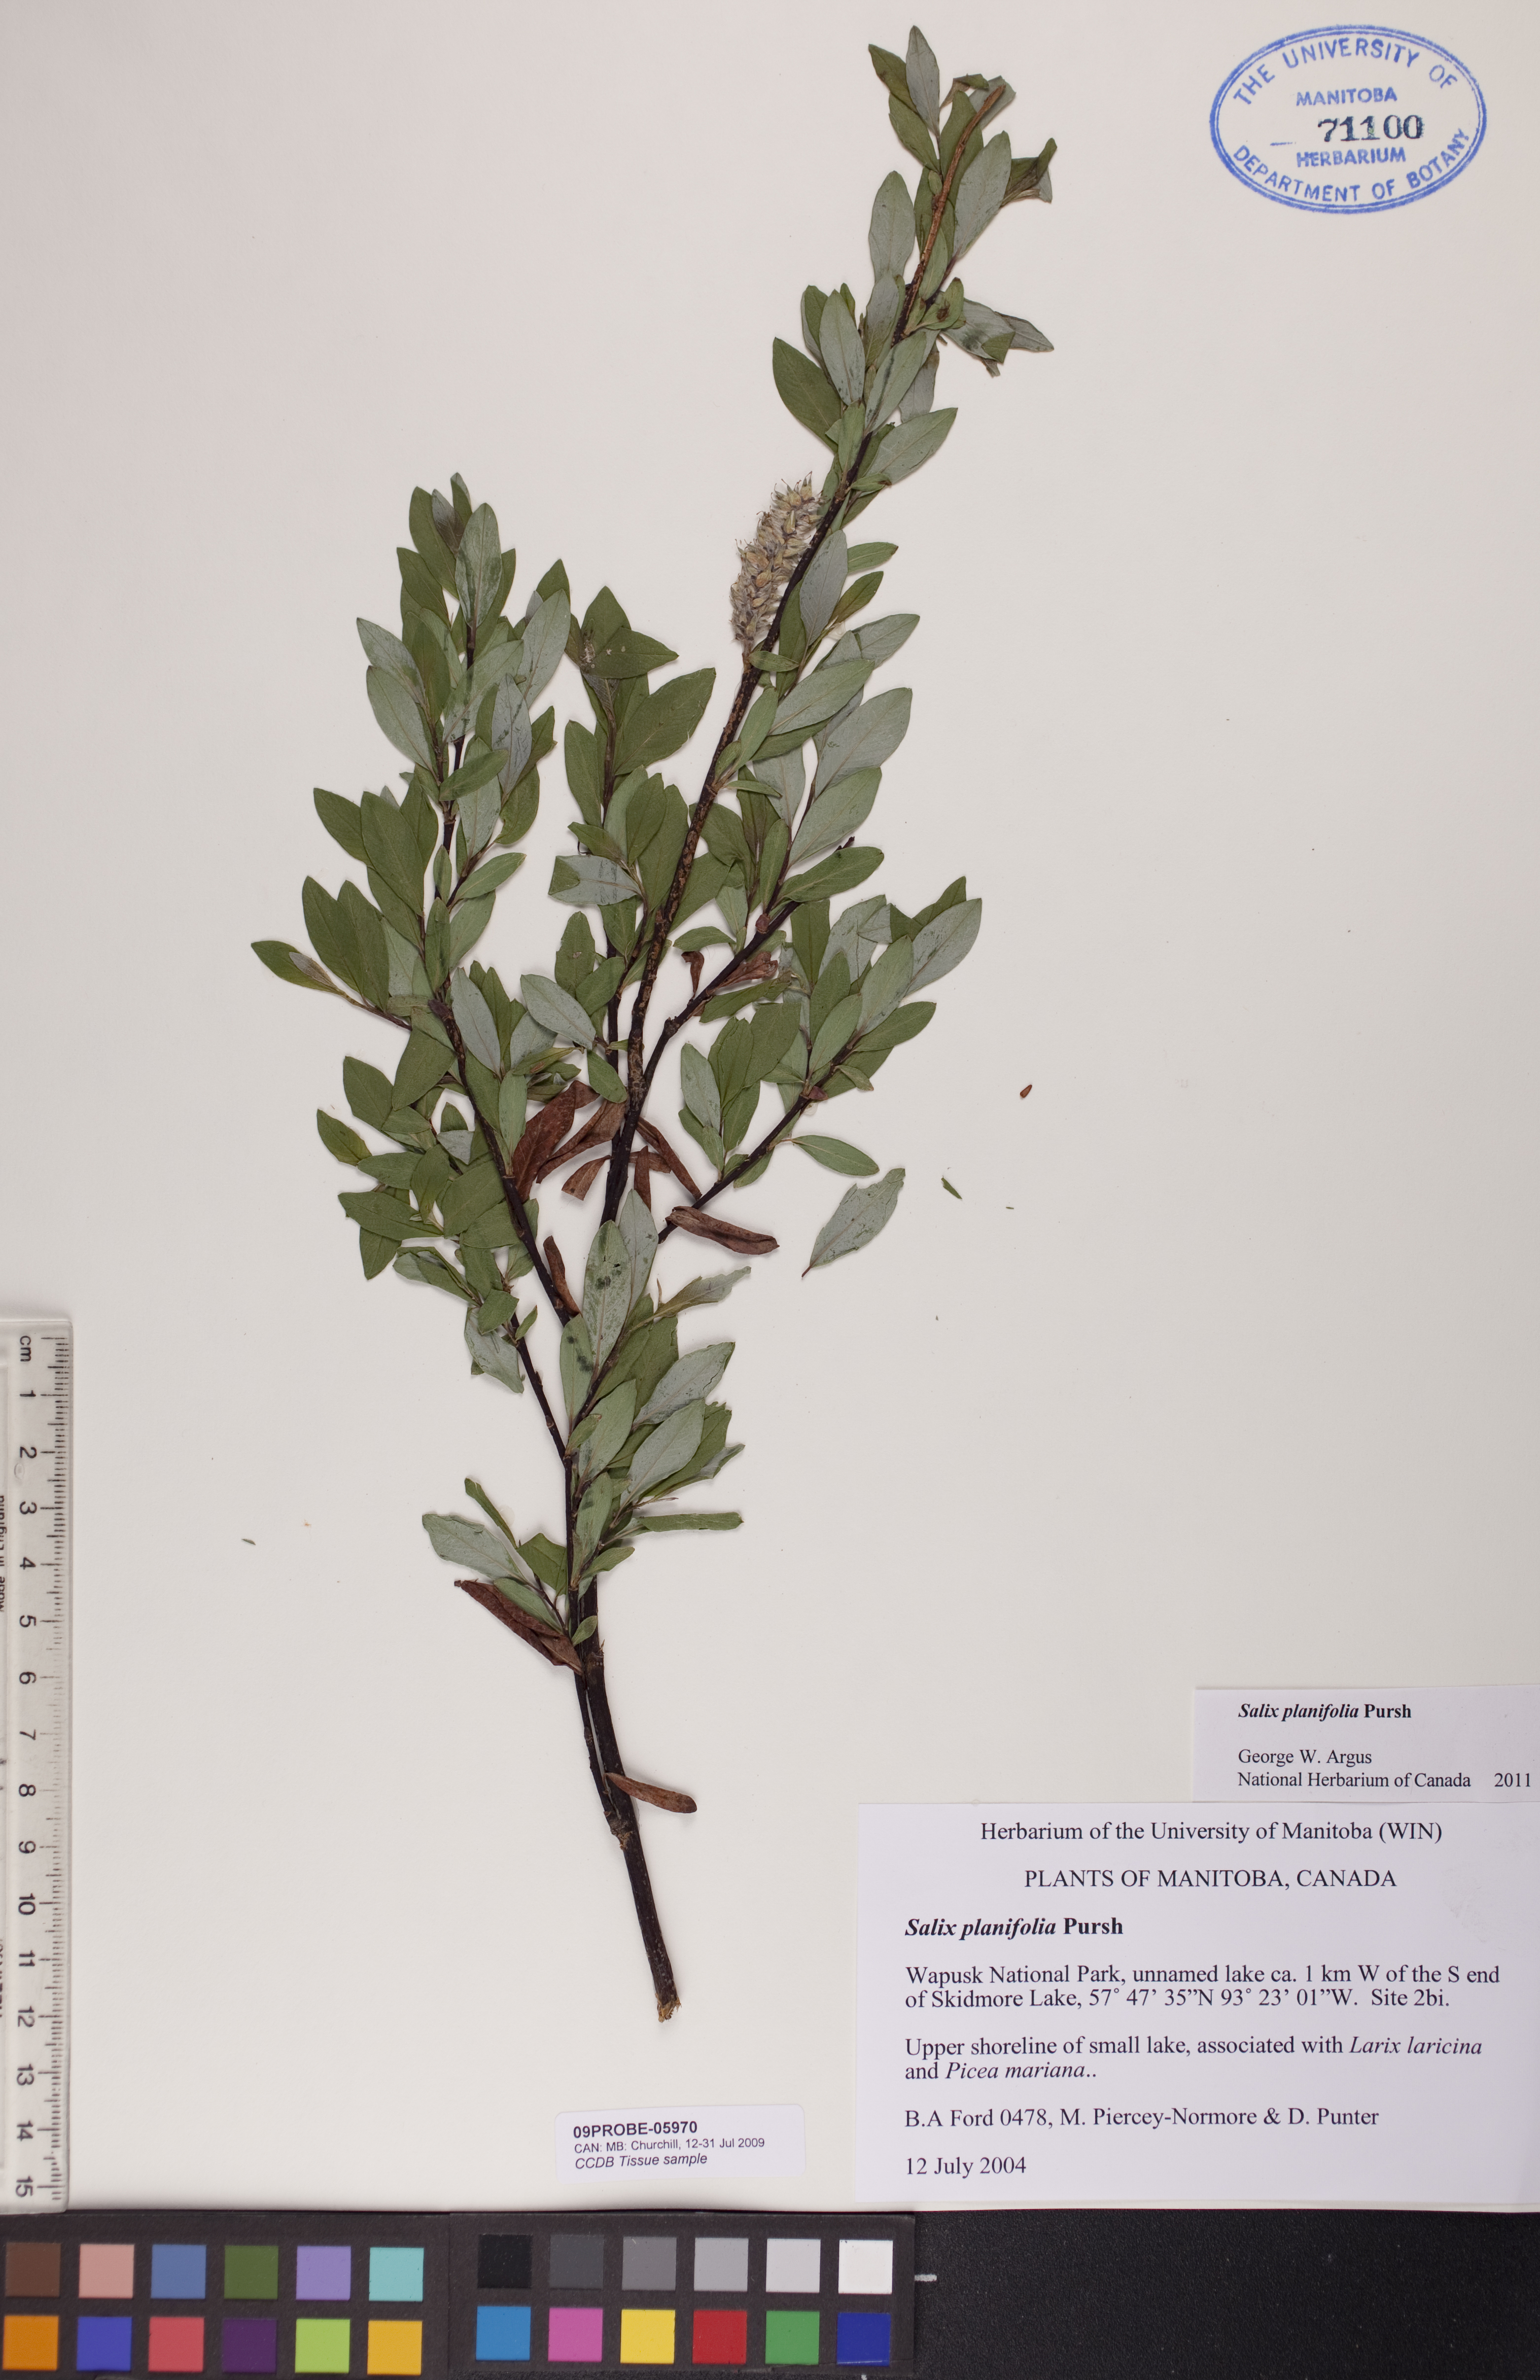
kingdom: Plantae
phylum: Tracheophyta
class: Magnoliopsida
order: Malpighiales
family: Salicaceae
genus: Salix
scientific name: Salix planifolia
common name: Mountain willow
